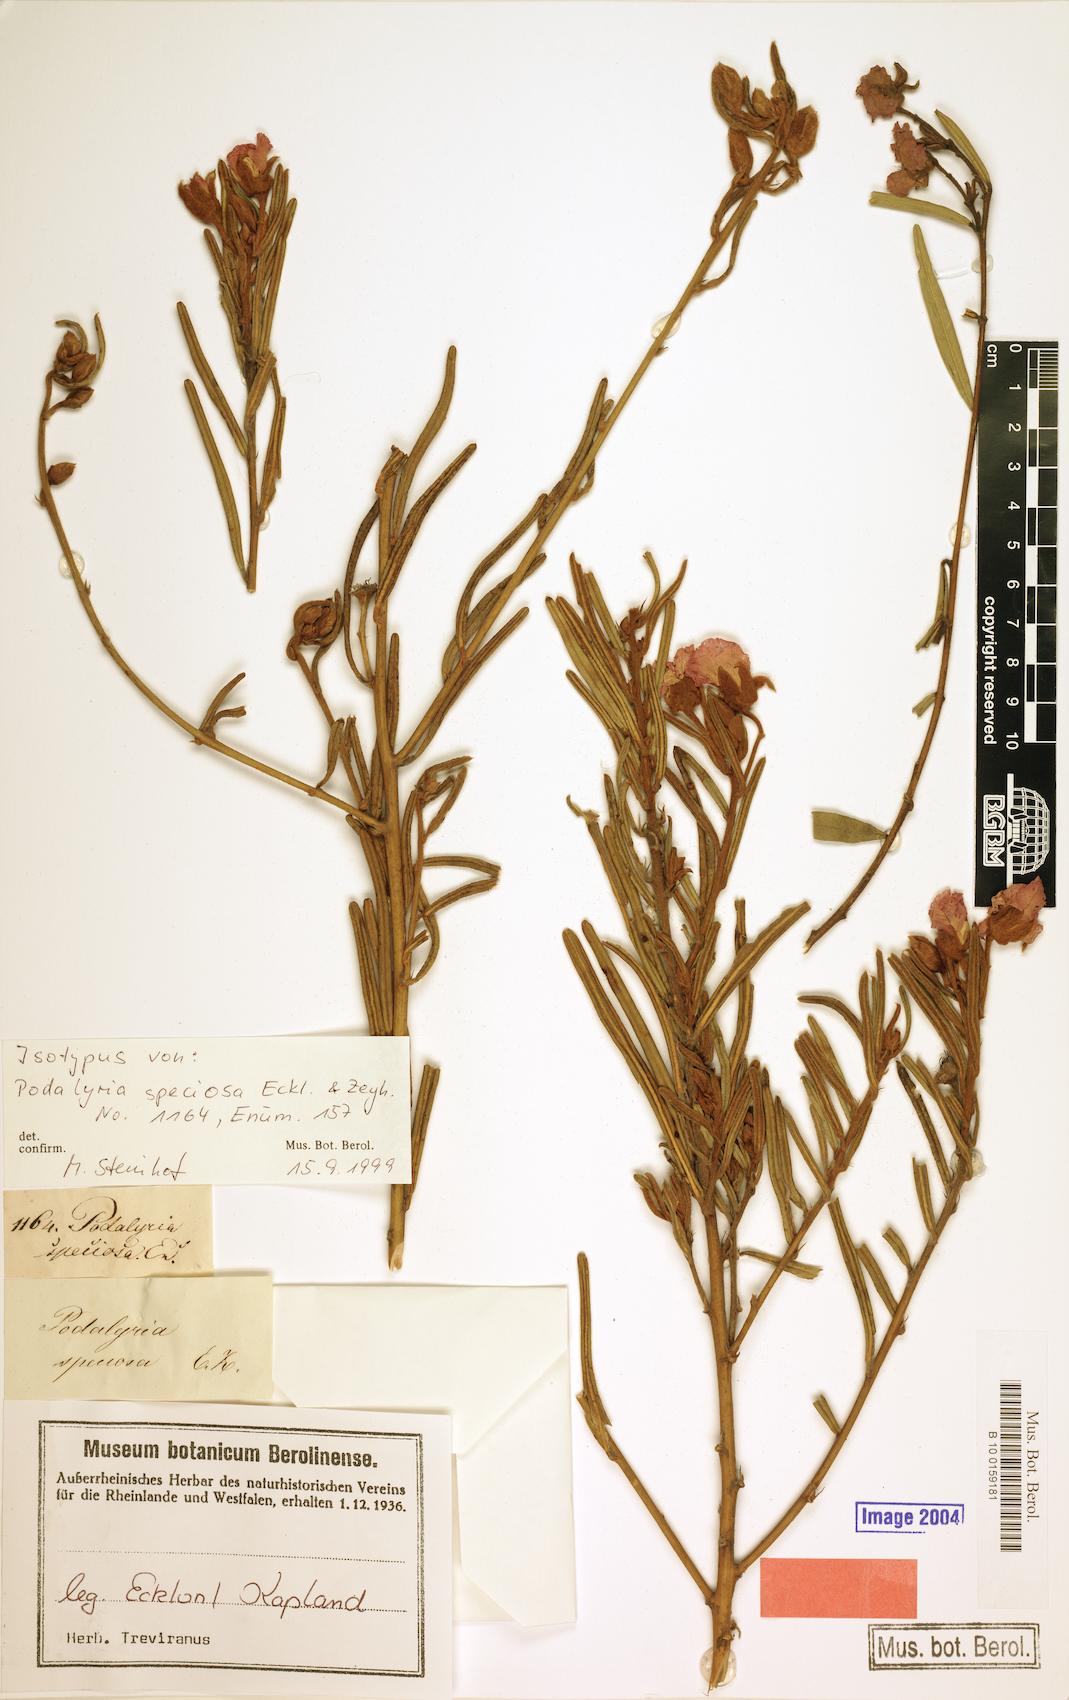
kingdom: Plantae
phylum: Tracheophyta
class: Magnoliopsida
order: Fabales
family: Fabaceae
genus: Podalyria
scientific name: Podalyria oleifolia
